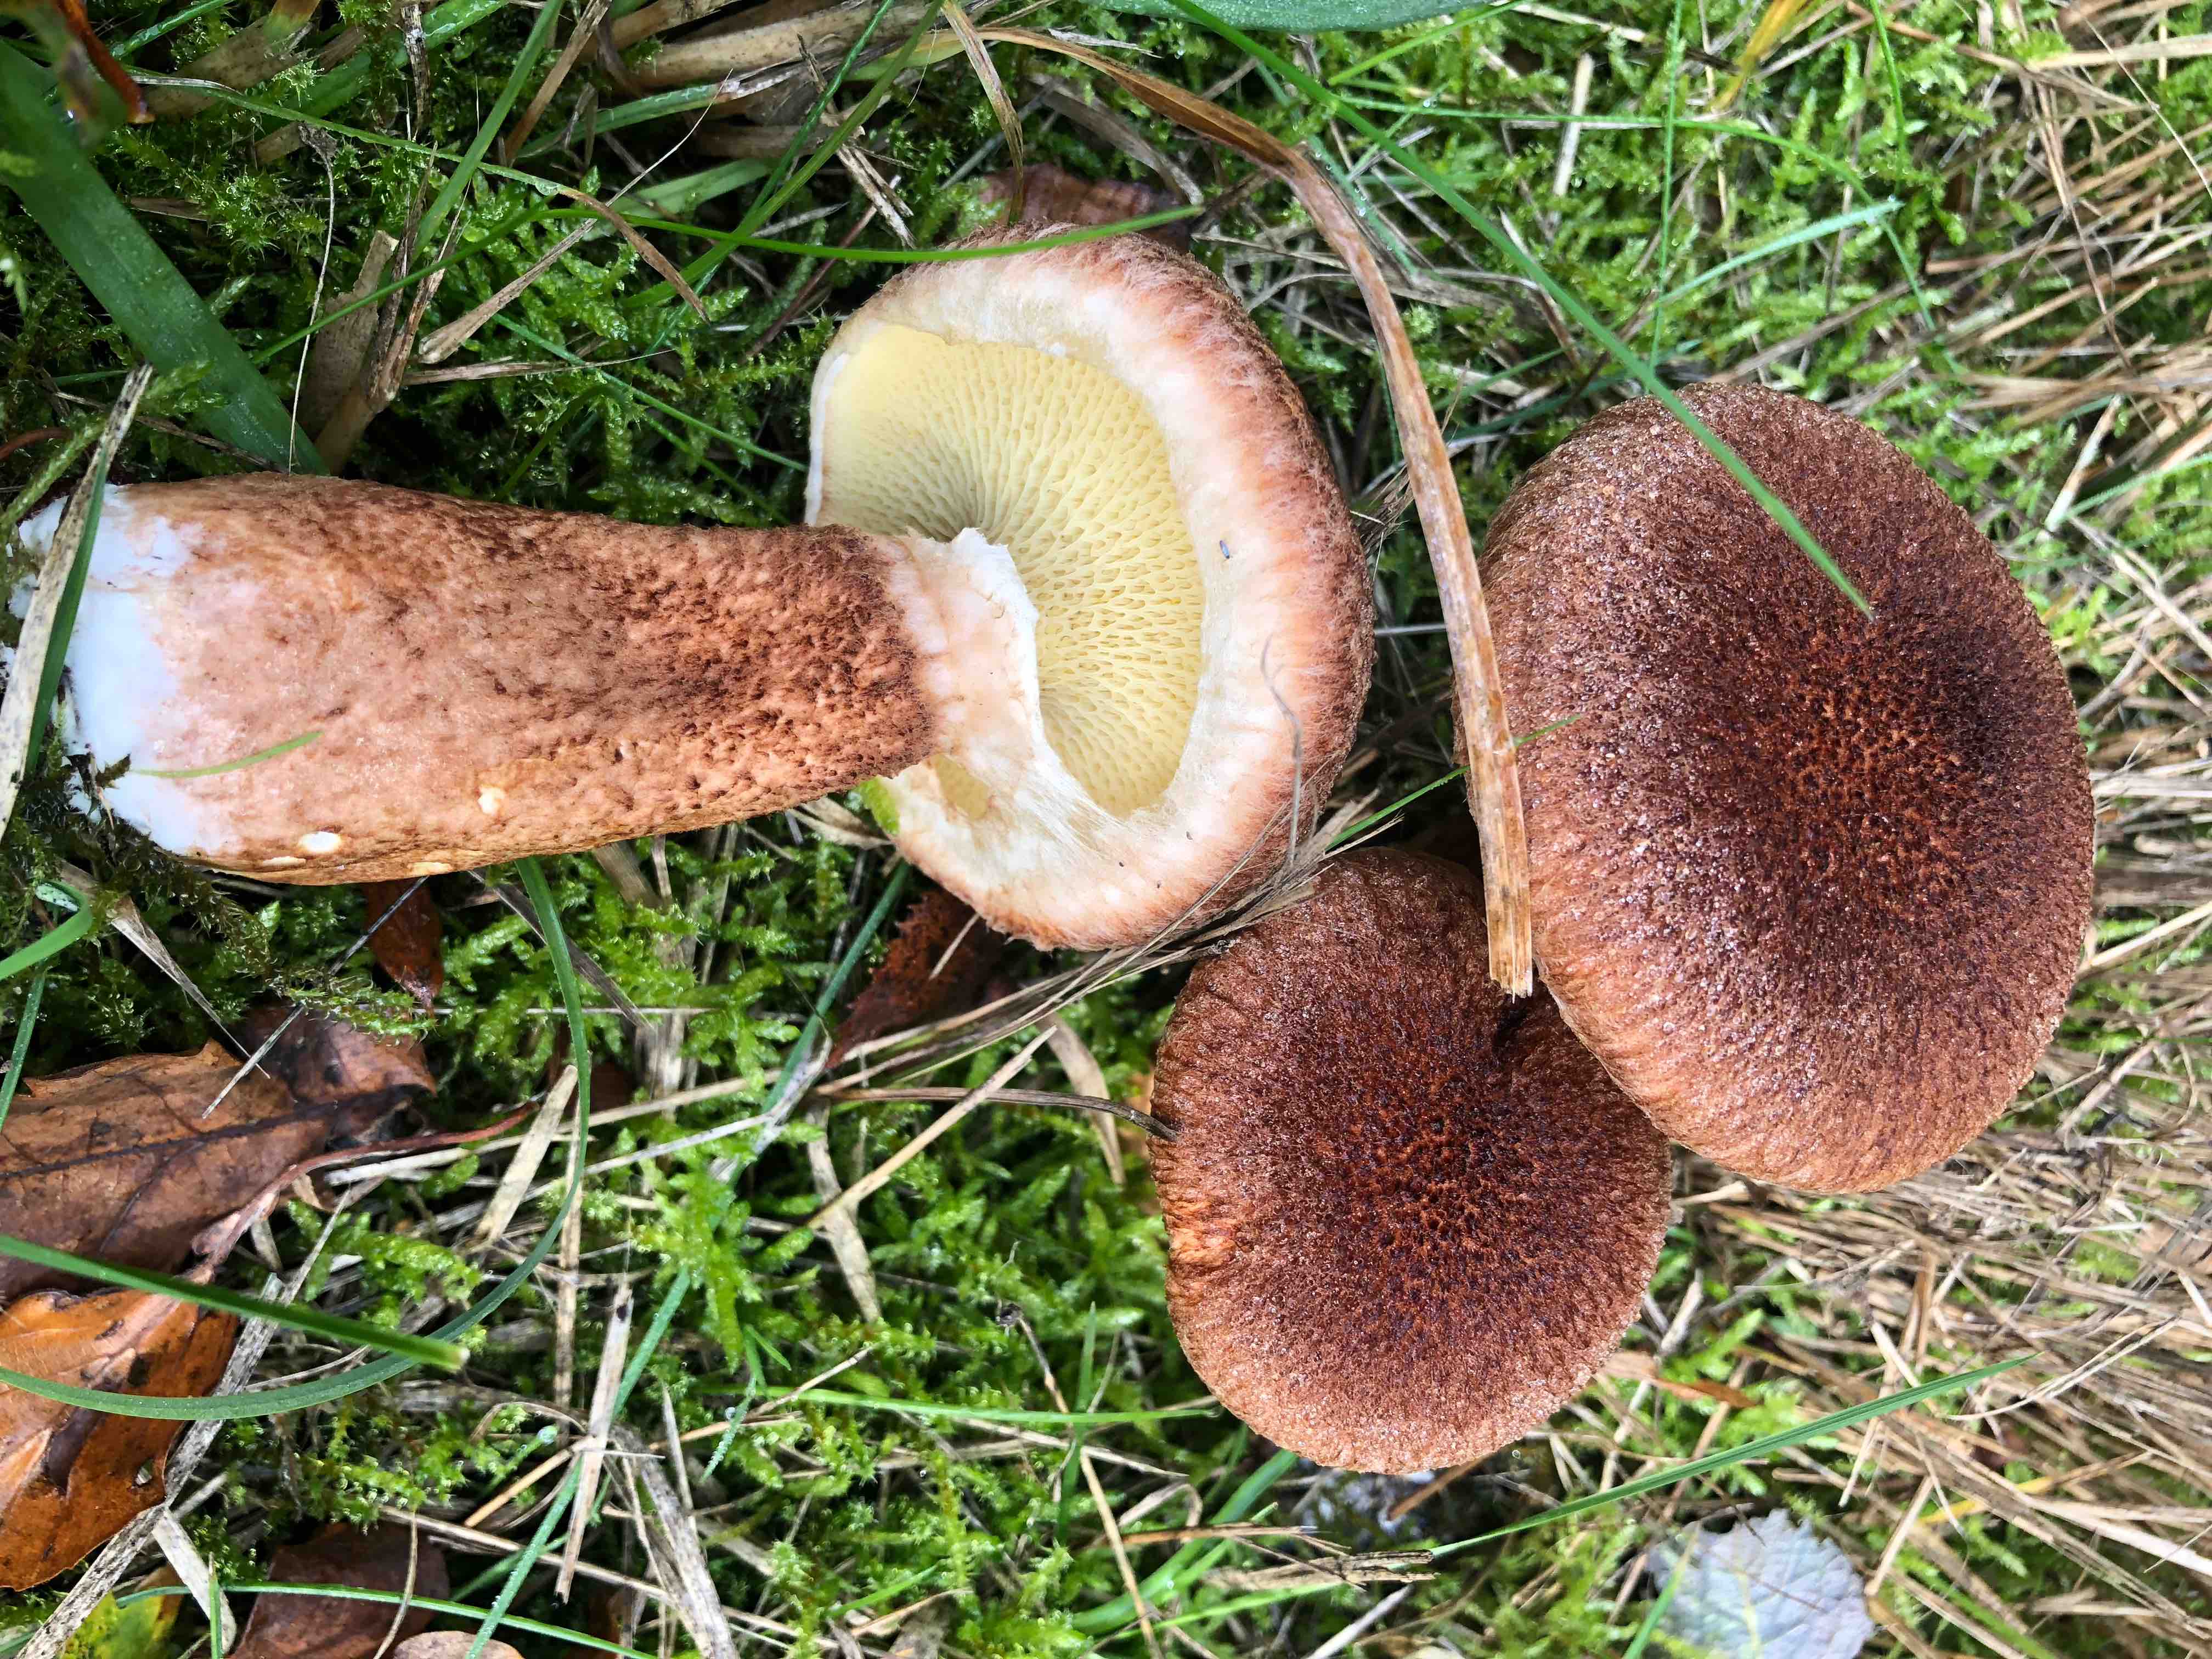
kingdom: Fungi
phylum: Basidiomycota
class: Agaricomycetes
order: Boletales
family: Suillaceae
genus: Suillus
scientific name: Suillus cavipes
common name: hulstokket slimrørhat
